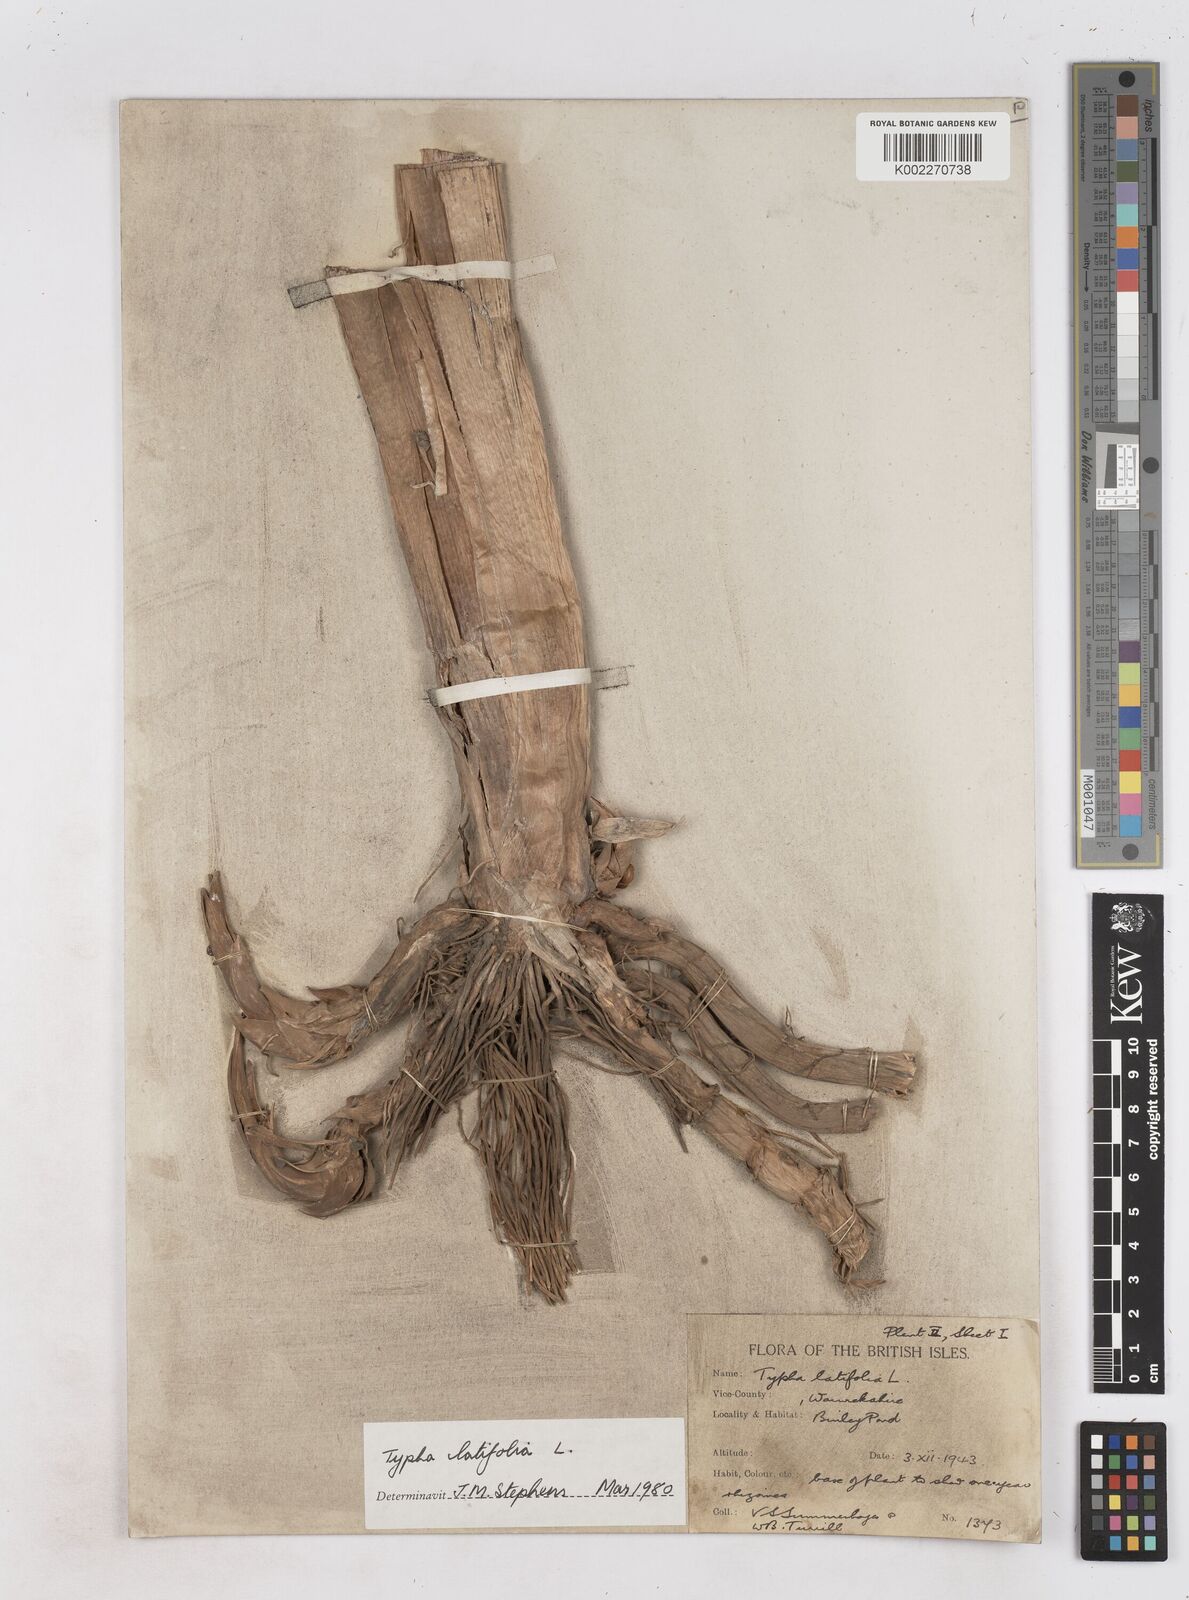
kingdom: Plantae
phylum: Tracheophyta
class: Liliopsida
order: Poales
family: Typhaceae
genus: Typha
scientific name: Typha latifolia
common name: Broadleaf cattail
